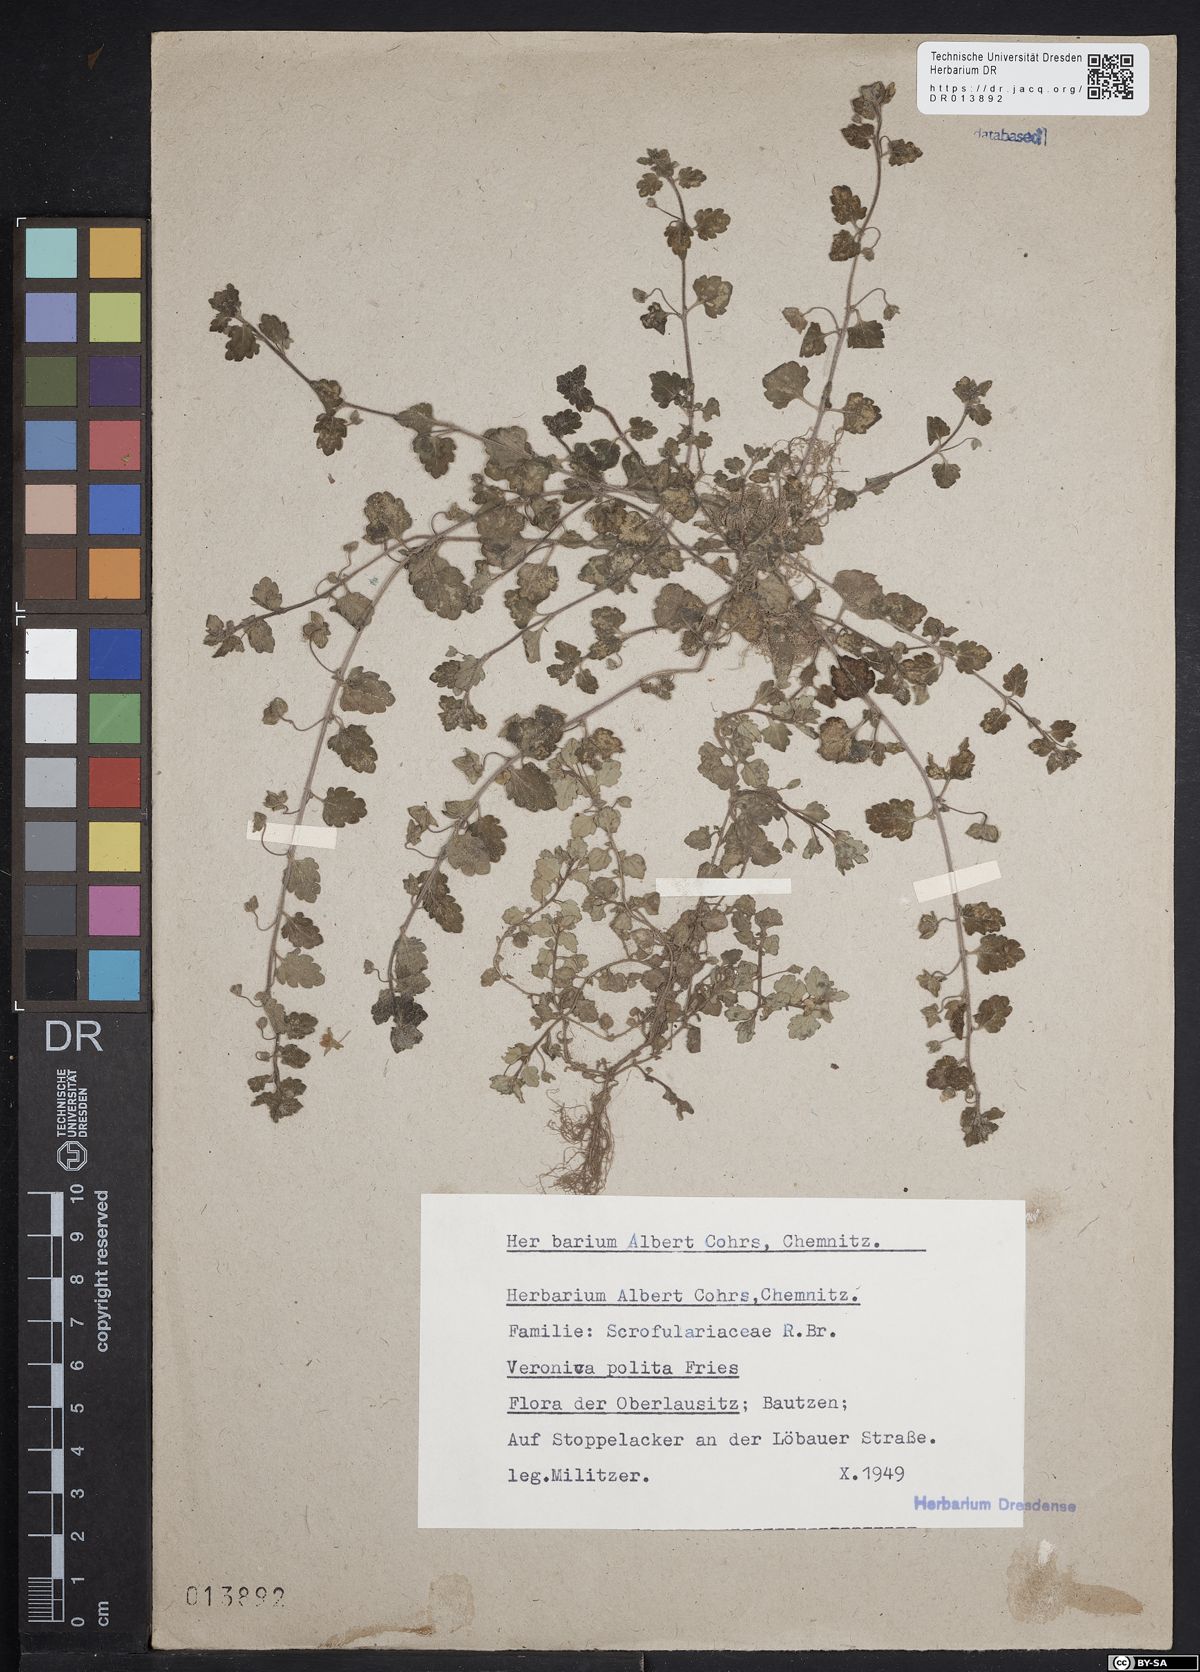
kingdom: Plantae
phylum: Tracheophyta
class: Magnoliopsida
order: Lamiales
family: Plantaginaceae
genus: Veronica
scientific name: Veronica polita
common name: Grey field-speedwell
